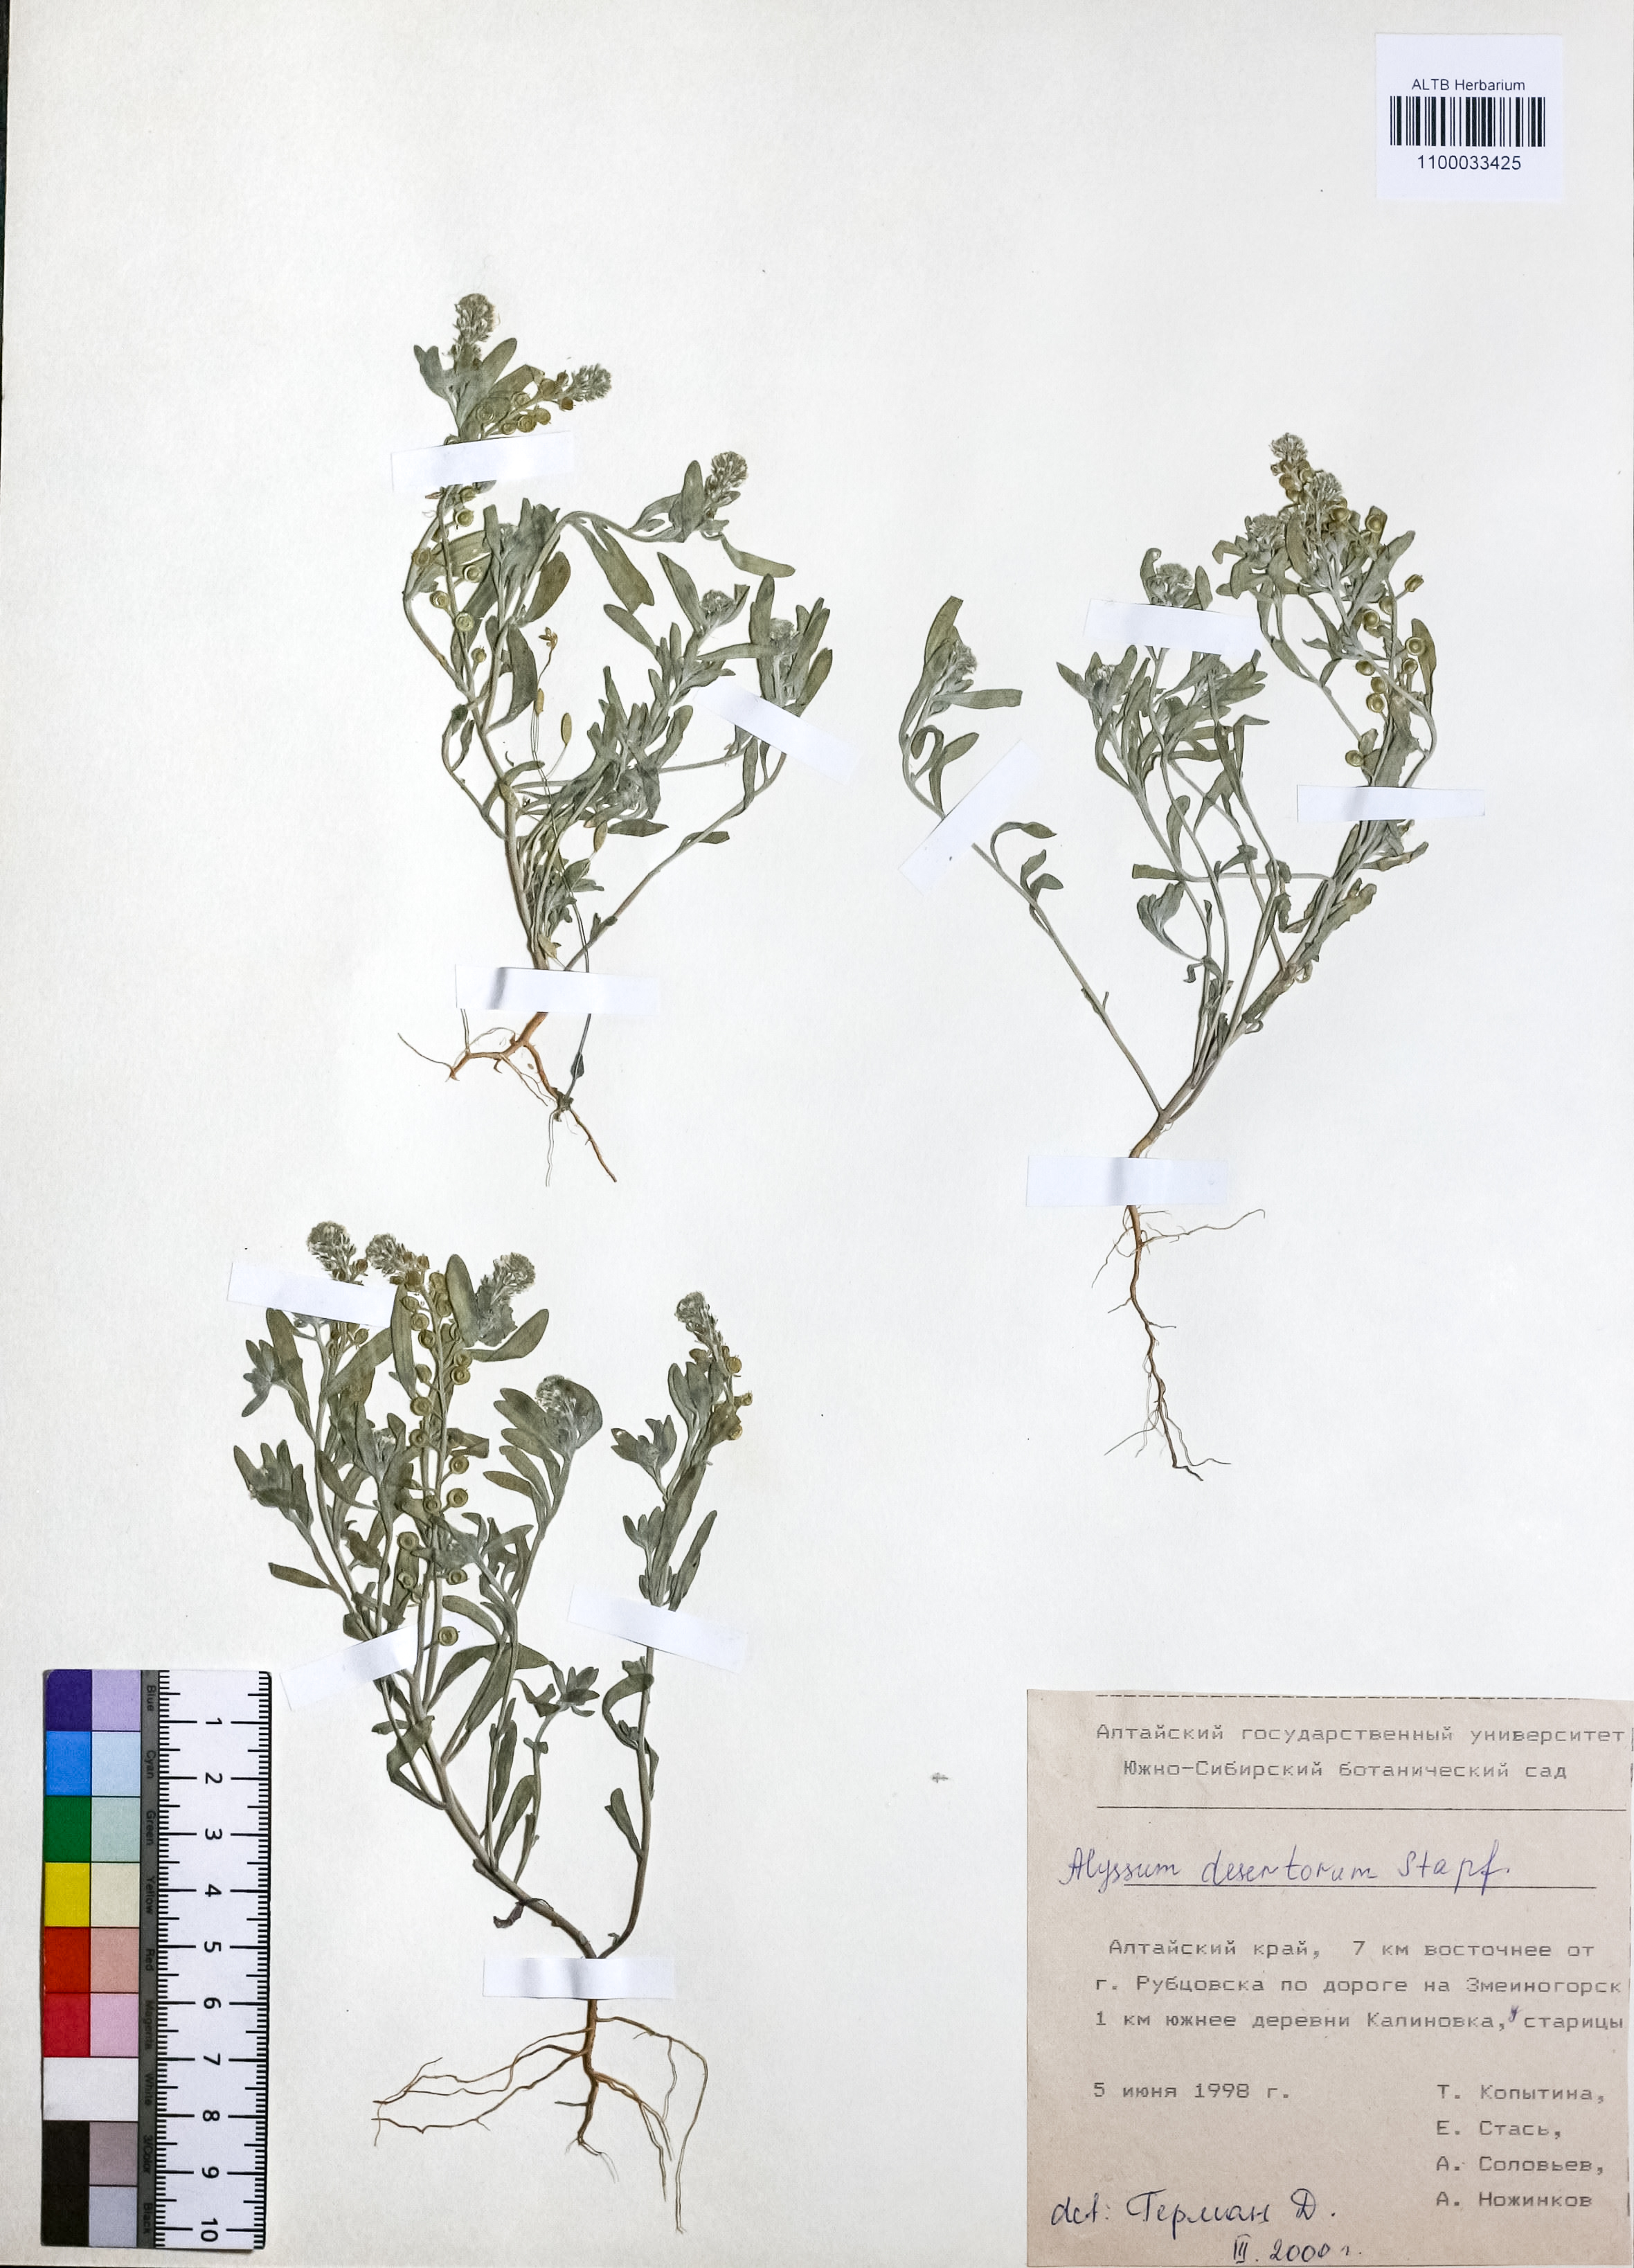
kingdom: Plantae
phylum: Tracheophyta
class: Magnoliopsida
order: Brassicales
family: Brassicaceae
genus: Alyssum
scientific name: Alyssum turkestanicum
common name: Desert alyssum
